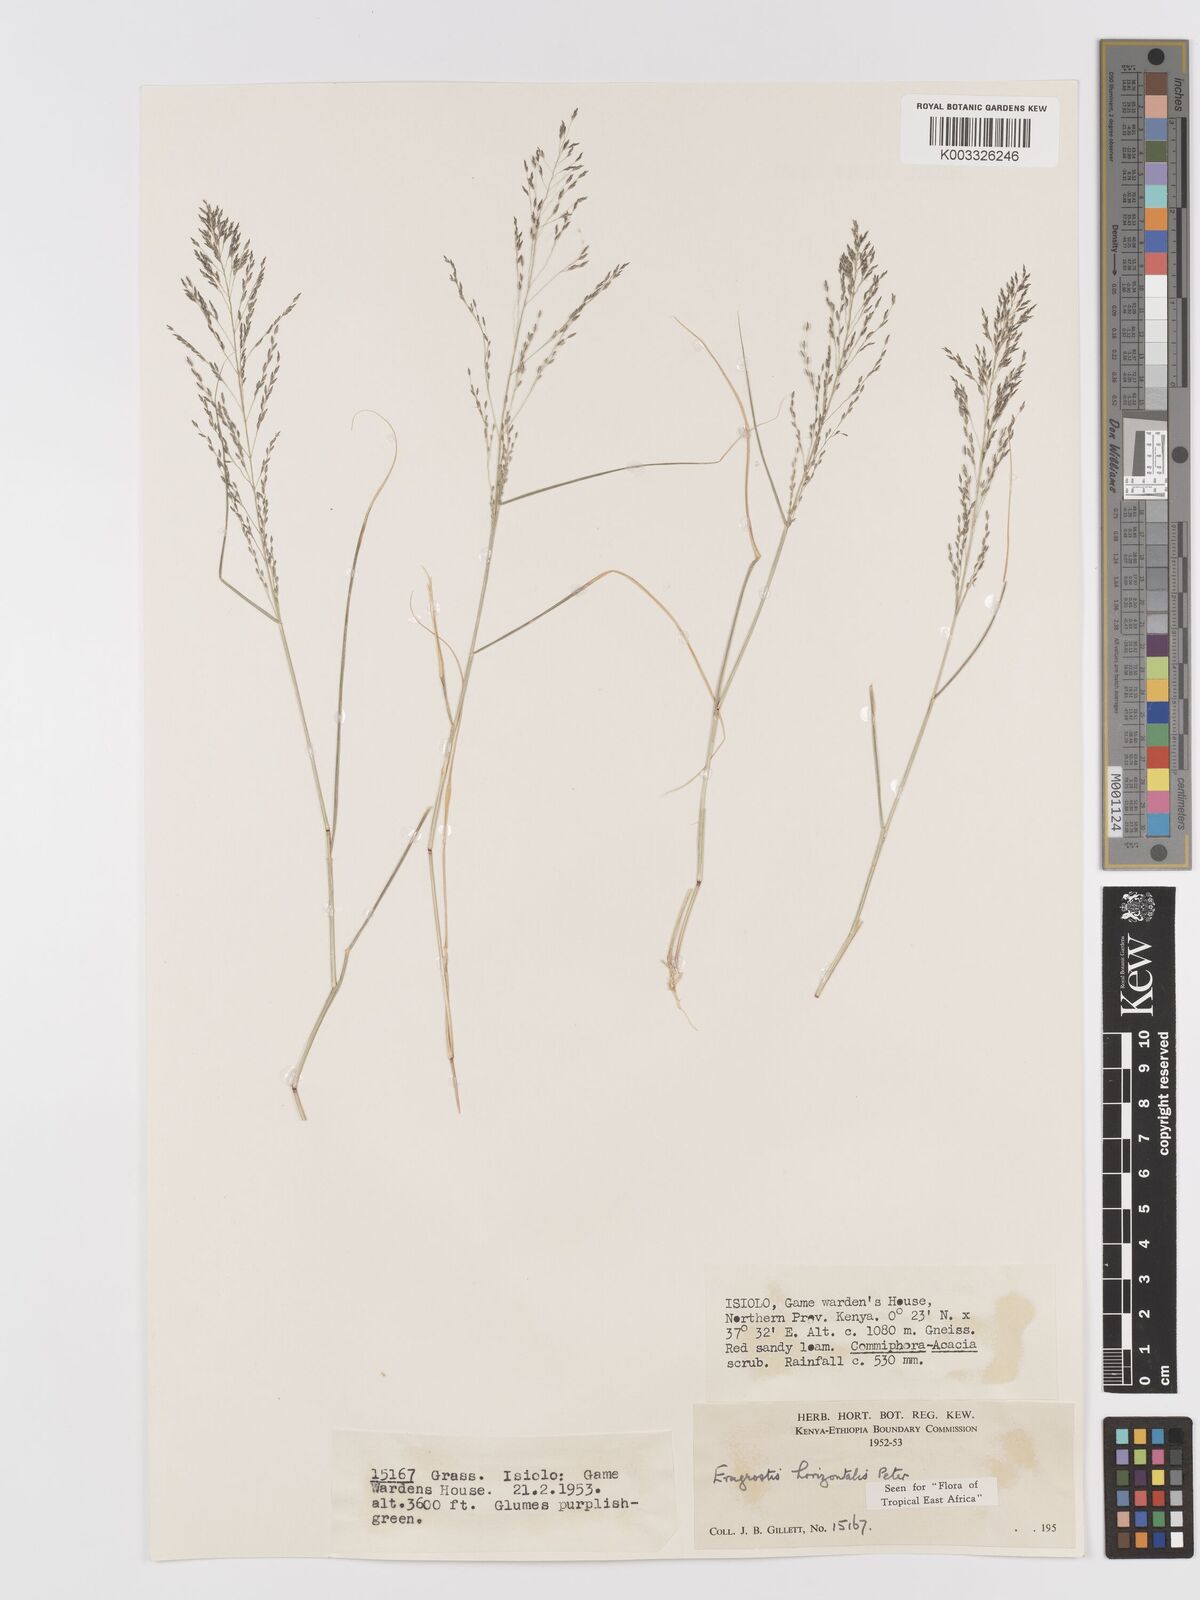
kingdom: Plantae
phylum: Tracheophyta
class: Liliopsida
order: Poales
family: Poaceae
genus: Eragrostis
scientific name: Eragrostis cylindriflora
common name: Cylinderflower lovegrass
